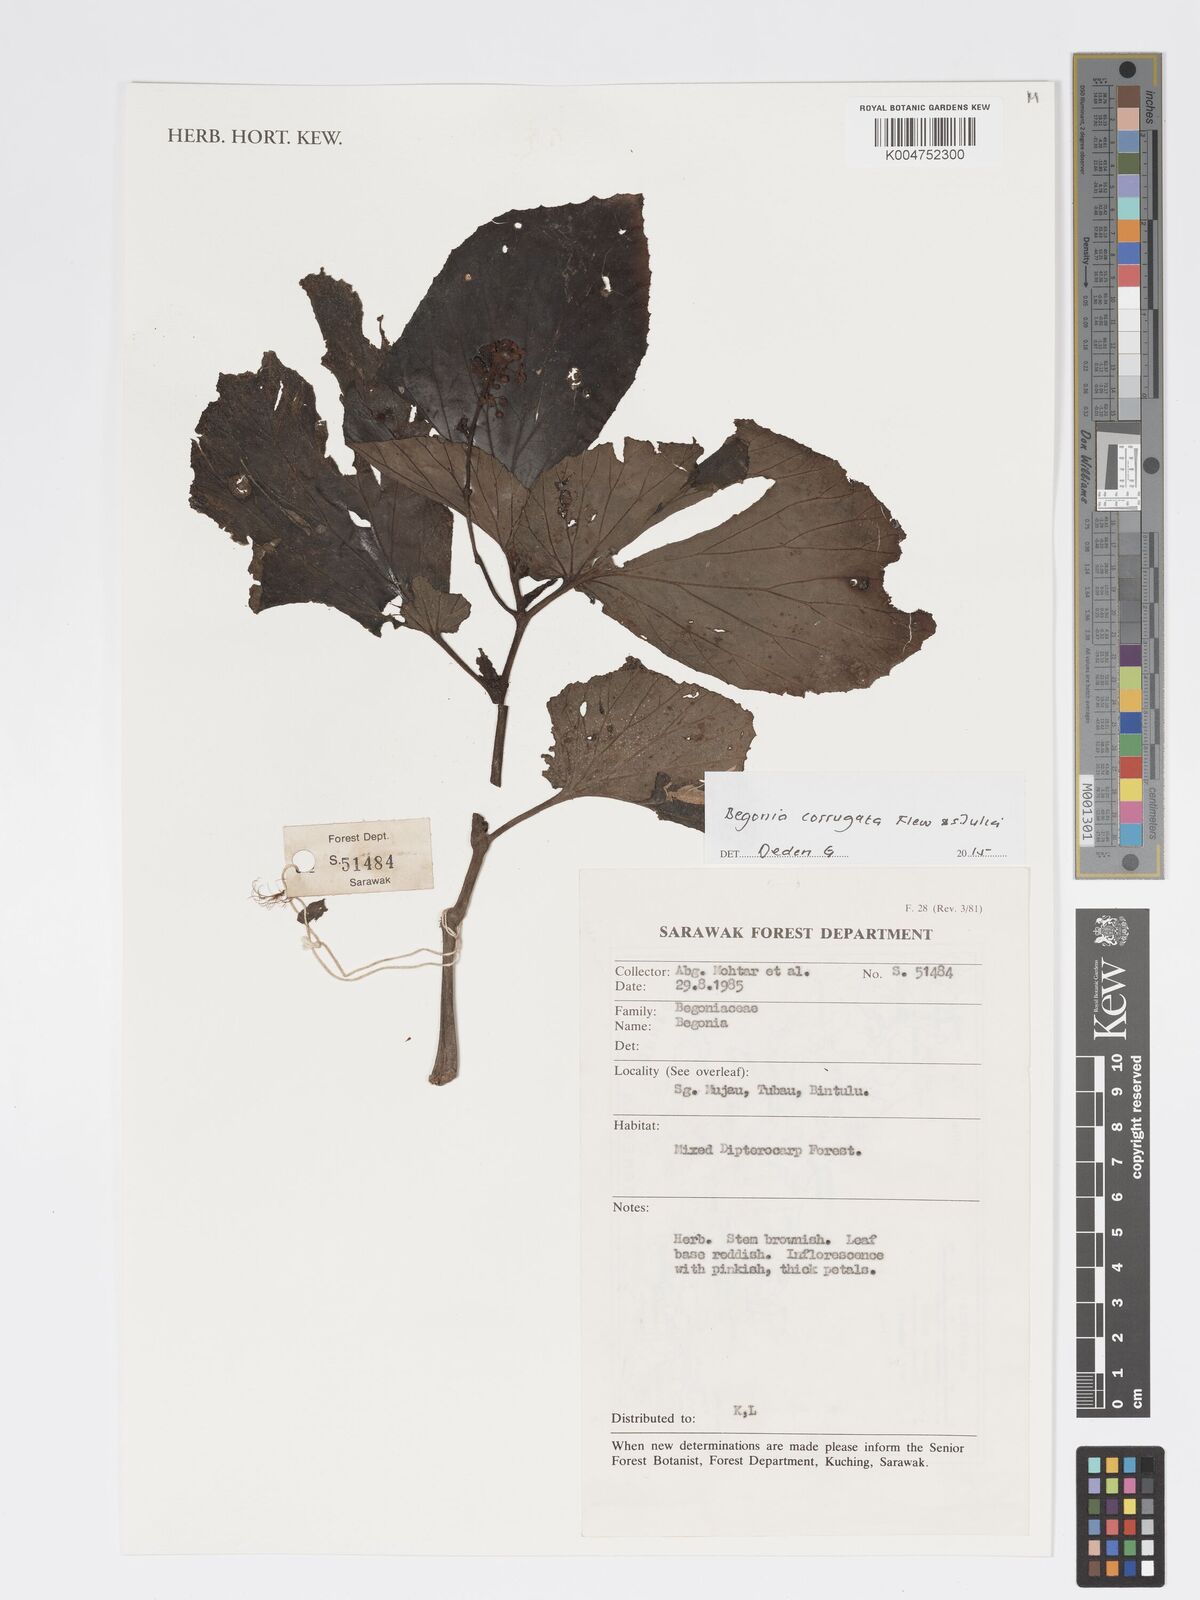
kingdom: Plantae
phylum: Tracheophyta
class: Magnoliopsida
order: Cucurbitales
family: Begoniaceae
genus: Begonia
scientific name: Begonia corrugata
